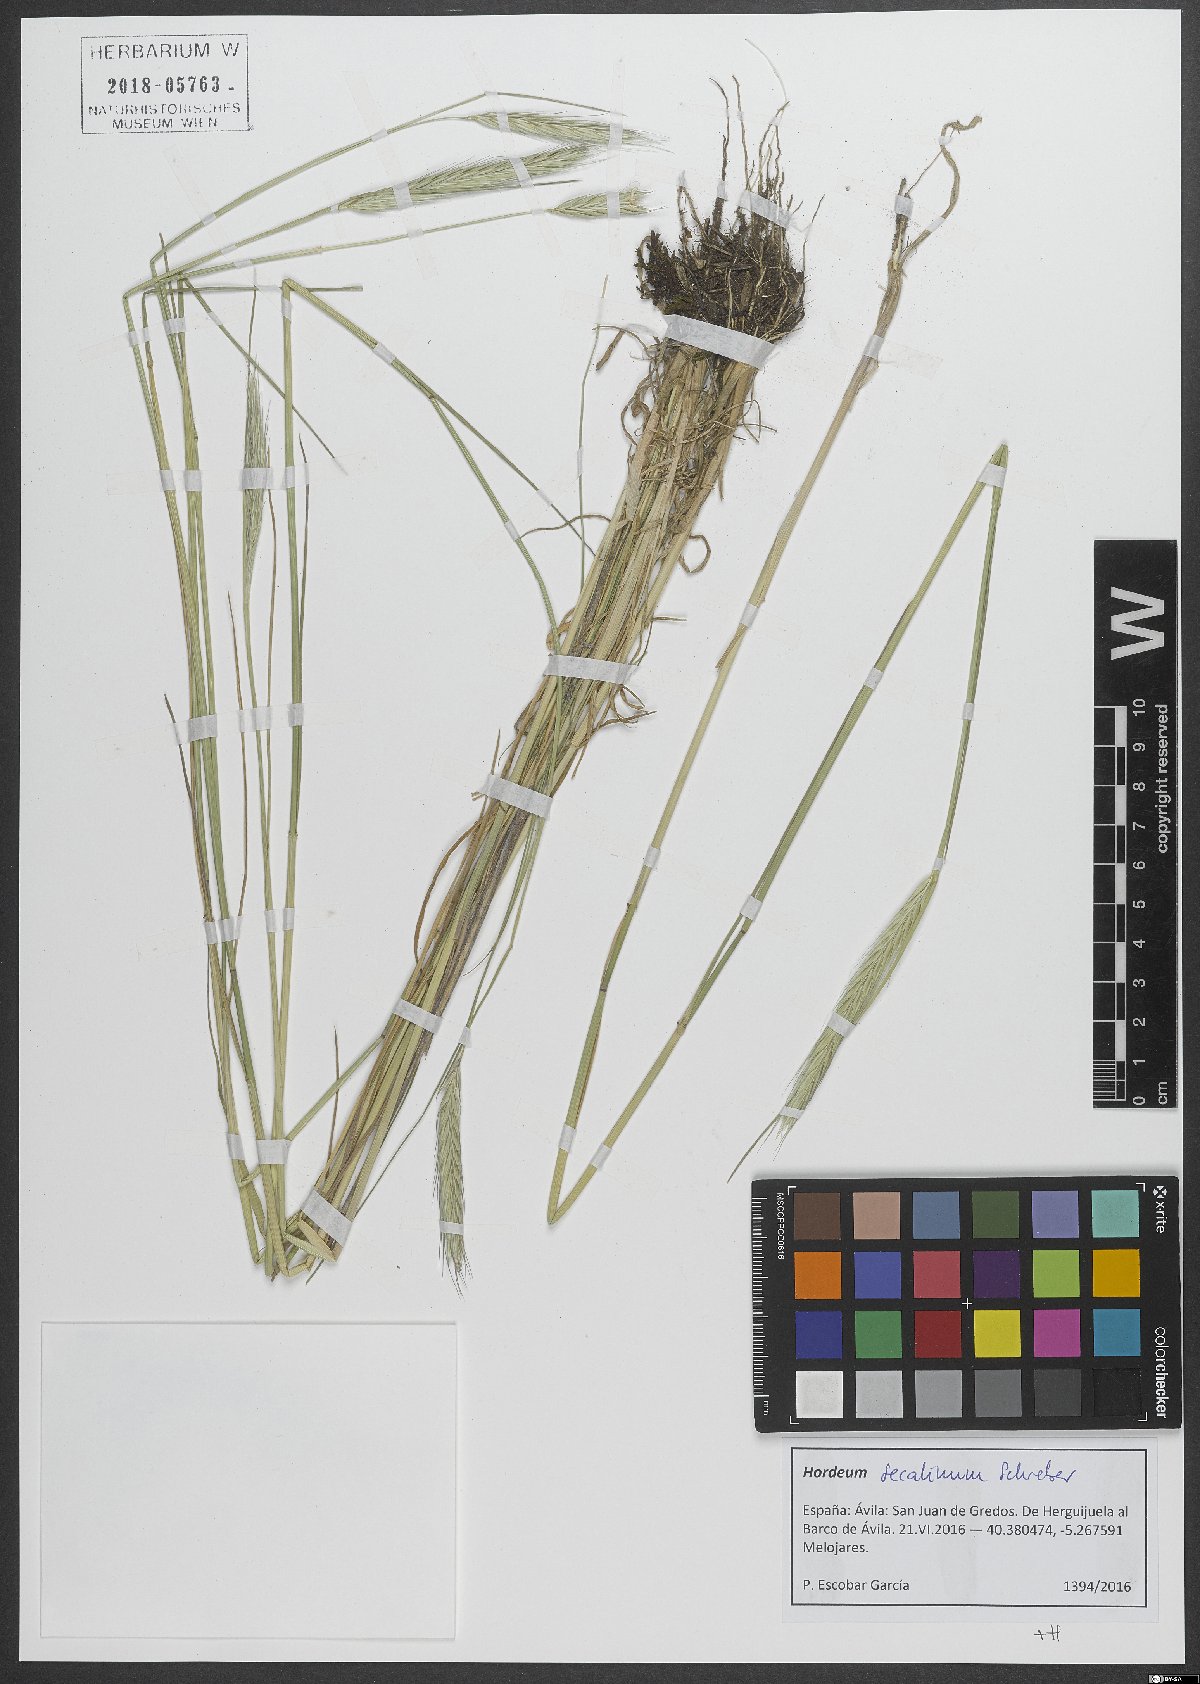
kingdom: Plantae
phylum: Tracheophyta
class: Liliopsida
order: Poales
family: Poaceae
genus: Hordeum
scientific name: Hordeum secalinum
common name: Meadow barley
